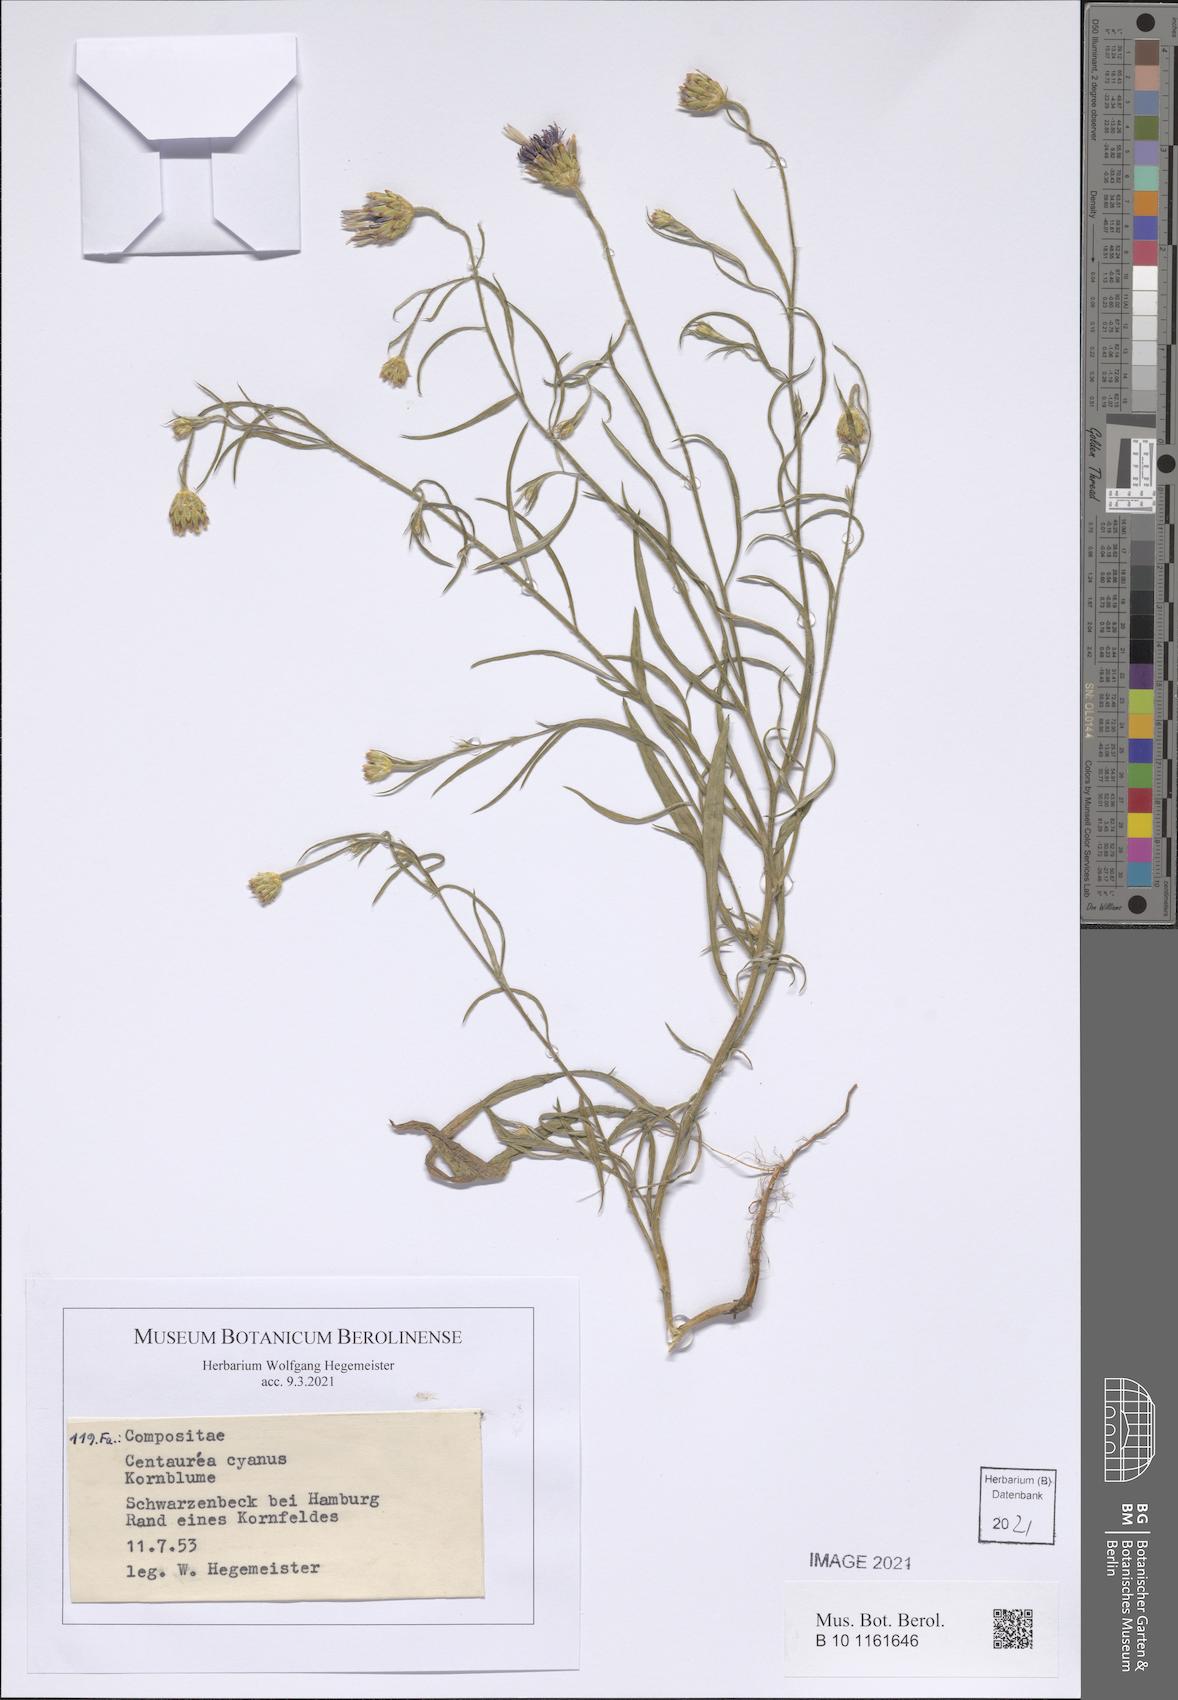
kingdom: Plantae
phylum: Tracheophyta
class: Magnoliopsida
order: Asterales
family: Asteraceae
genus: Centaurea
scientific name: Centaurea cyanus
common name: Cornflower
